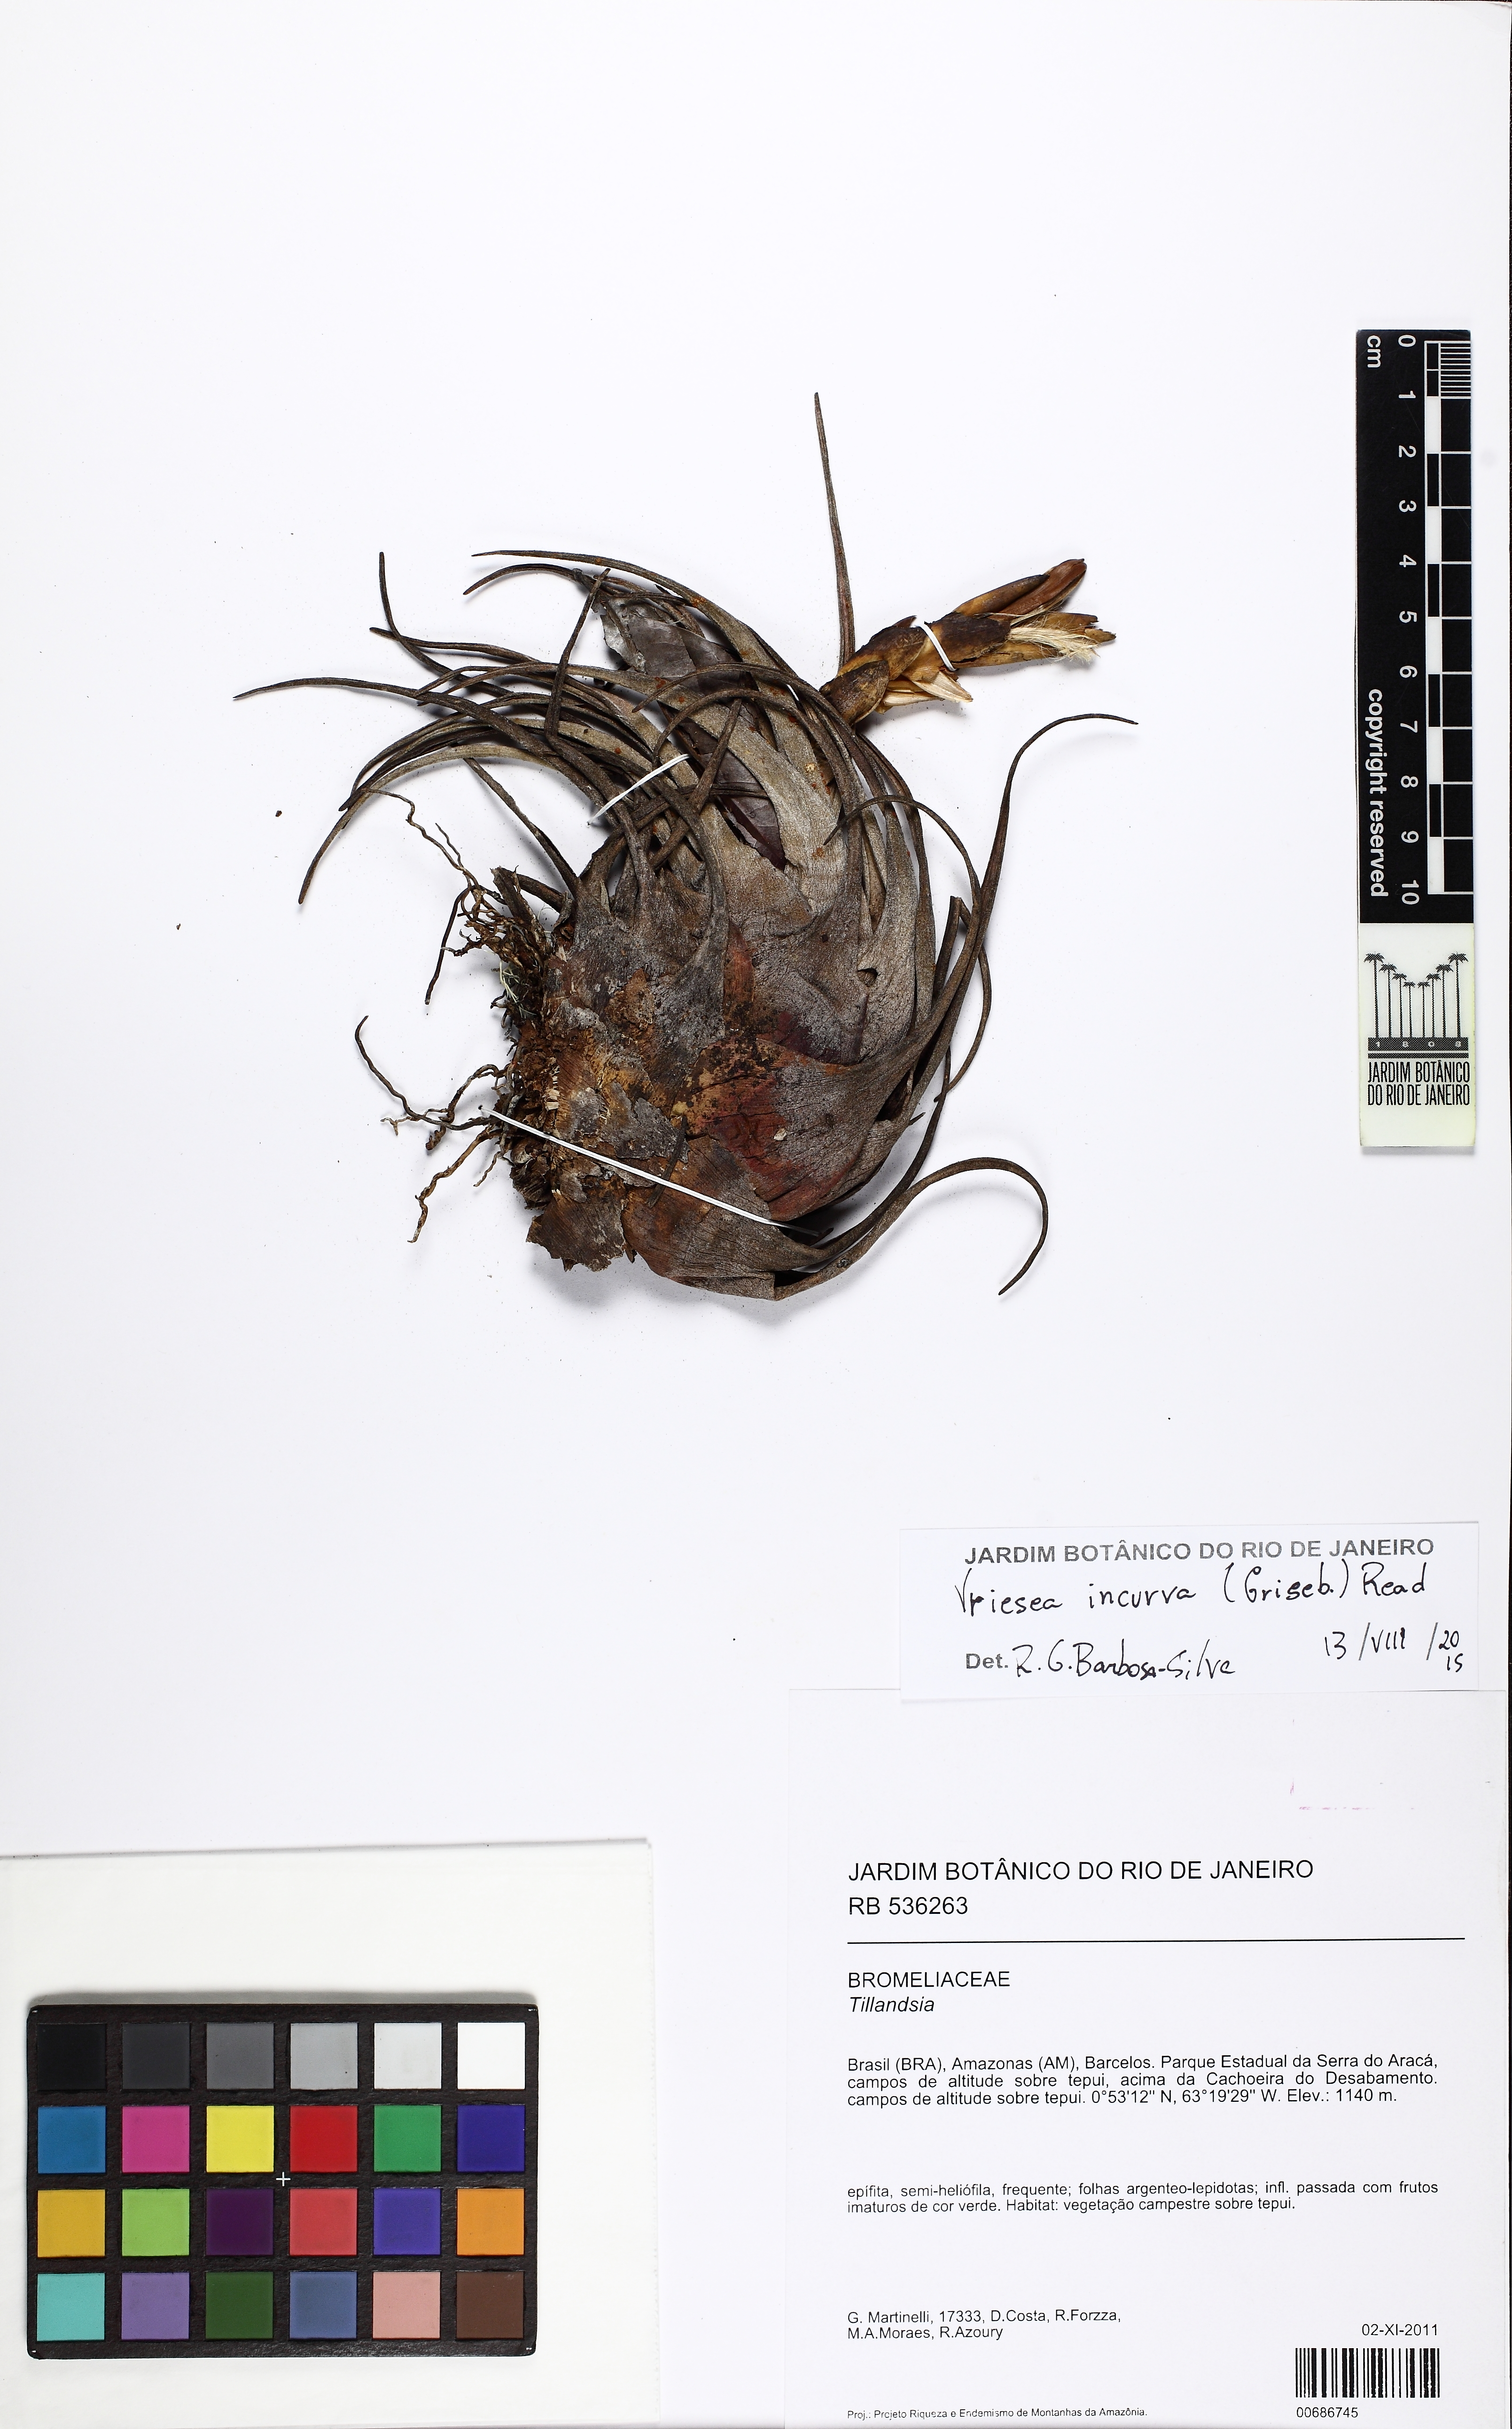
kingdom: Plantae
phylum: Tracheophyta
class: Liliopsida
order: Poales
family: Bromeliaceae
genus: Vriesea
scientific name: Vriesea incurva
